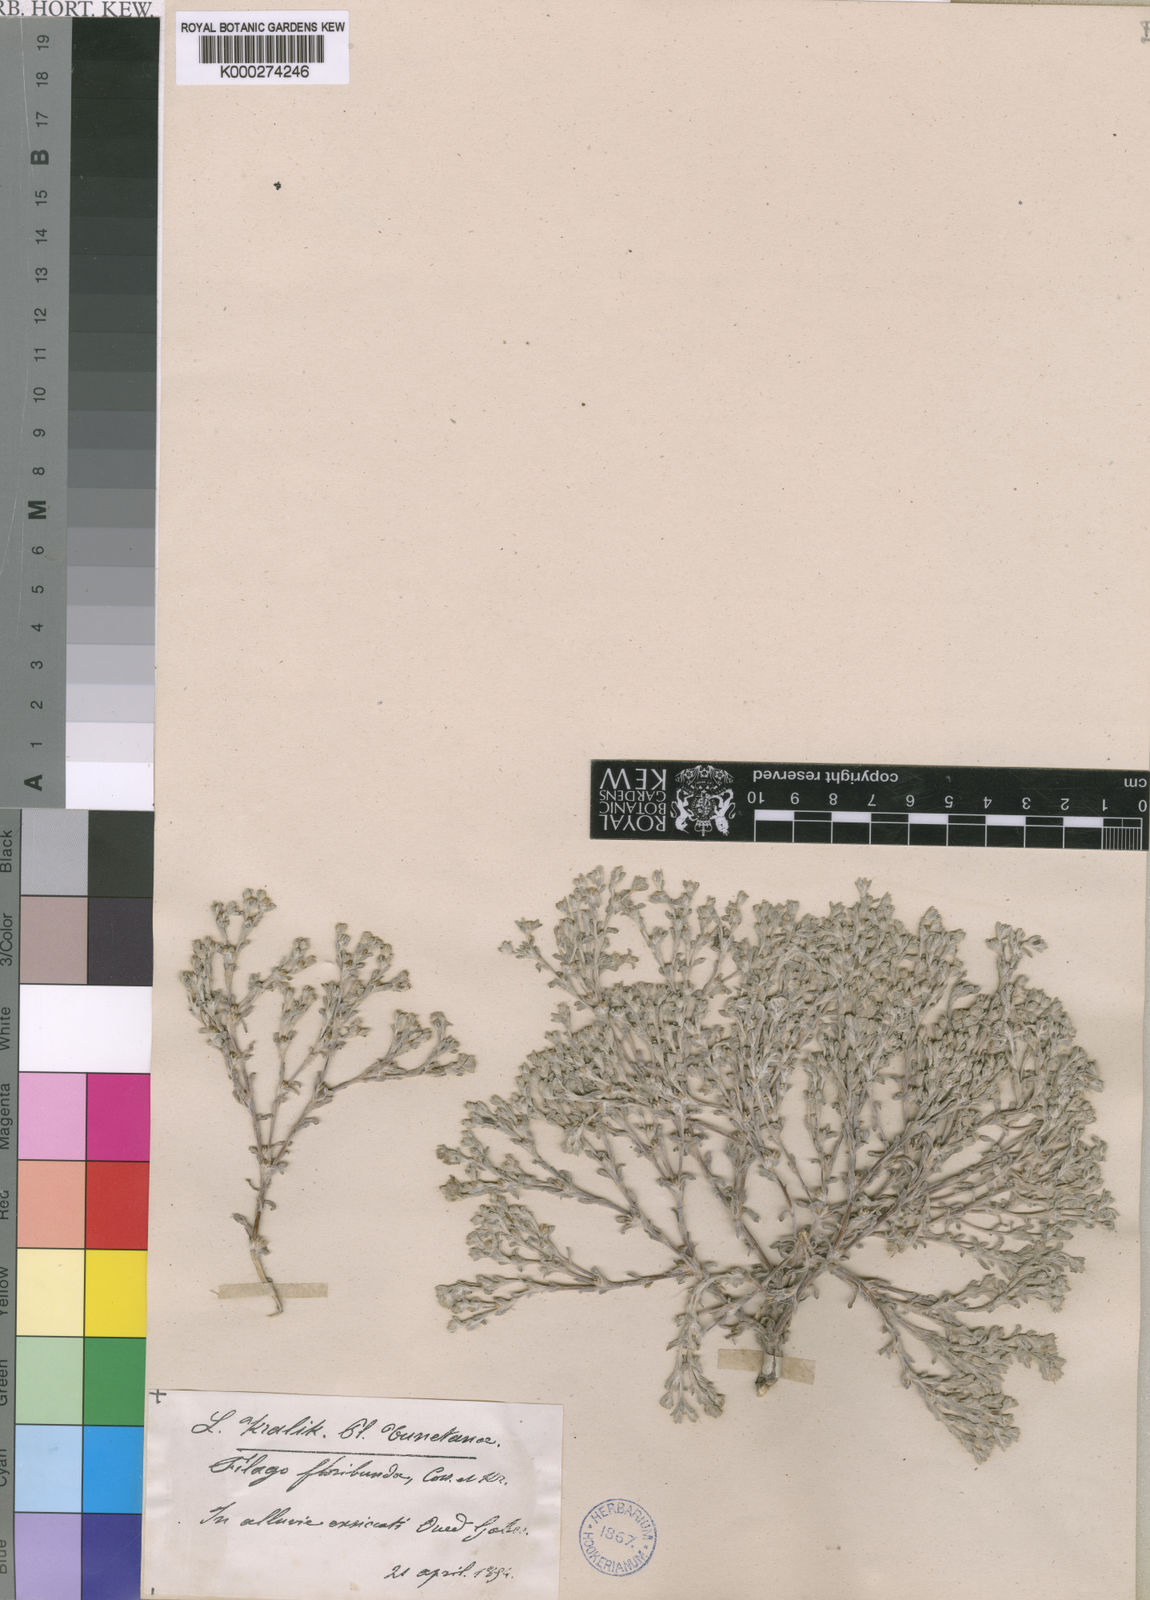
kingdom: Plantae
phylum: Tracheophyta
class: Magnoliopsida
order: Asterales
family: Asteraceae
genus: Filago
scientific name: Filago mareotica
